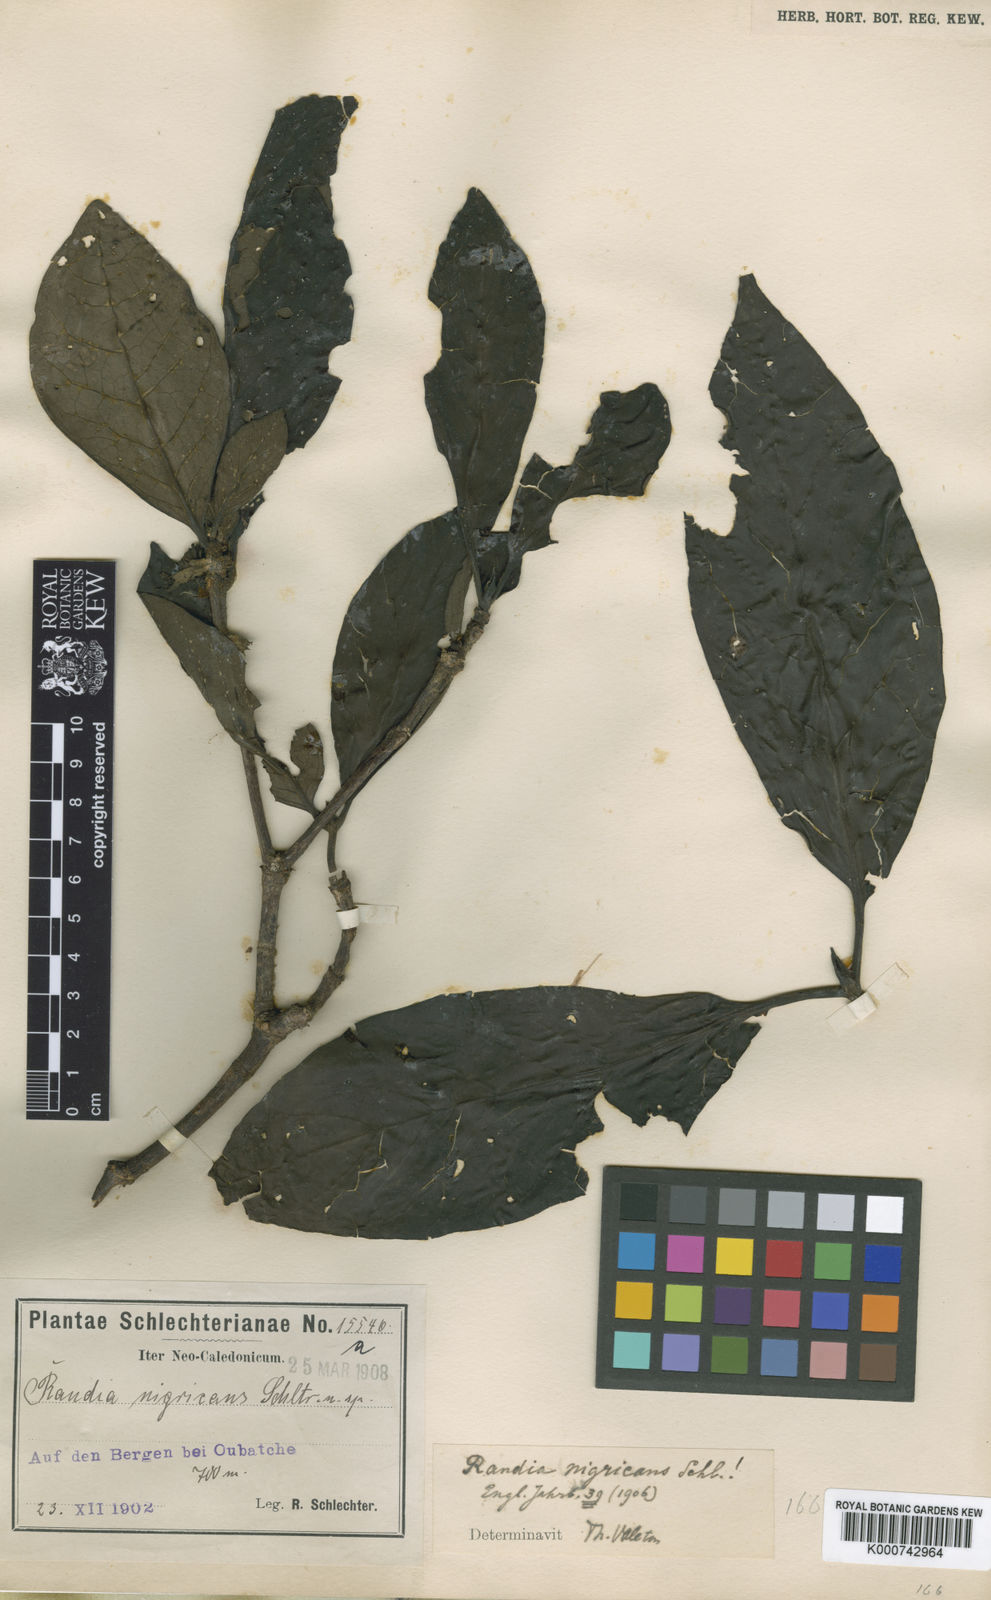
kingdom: Plantae
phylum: Tracheophyta
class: Magnoliopsida
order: Gentianales
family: Rubiaceae
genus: Atractocarpus
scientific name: Atractocarpus nigricans
